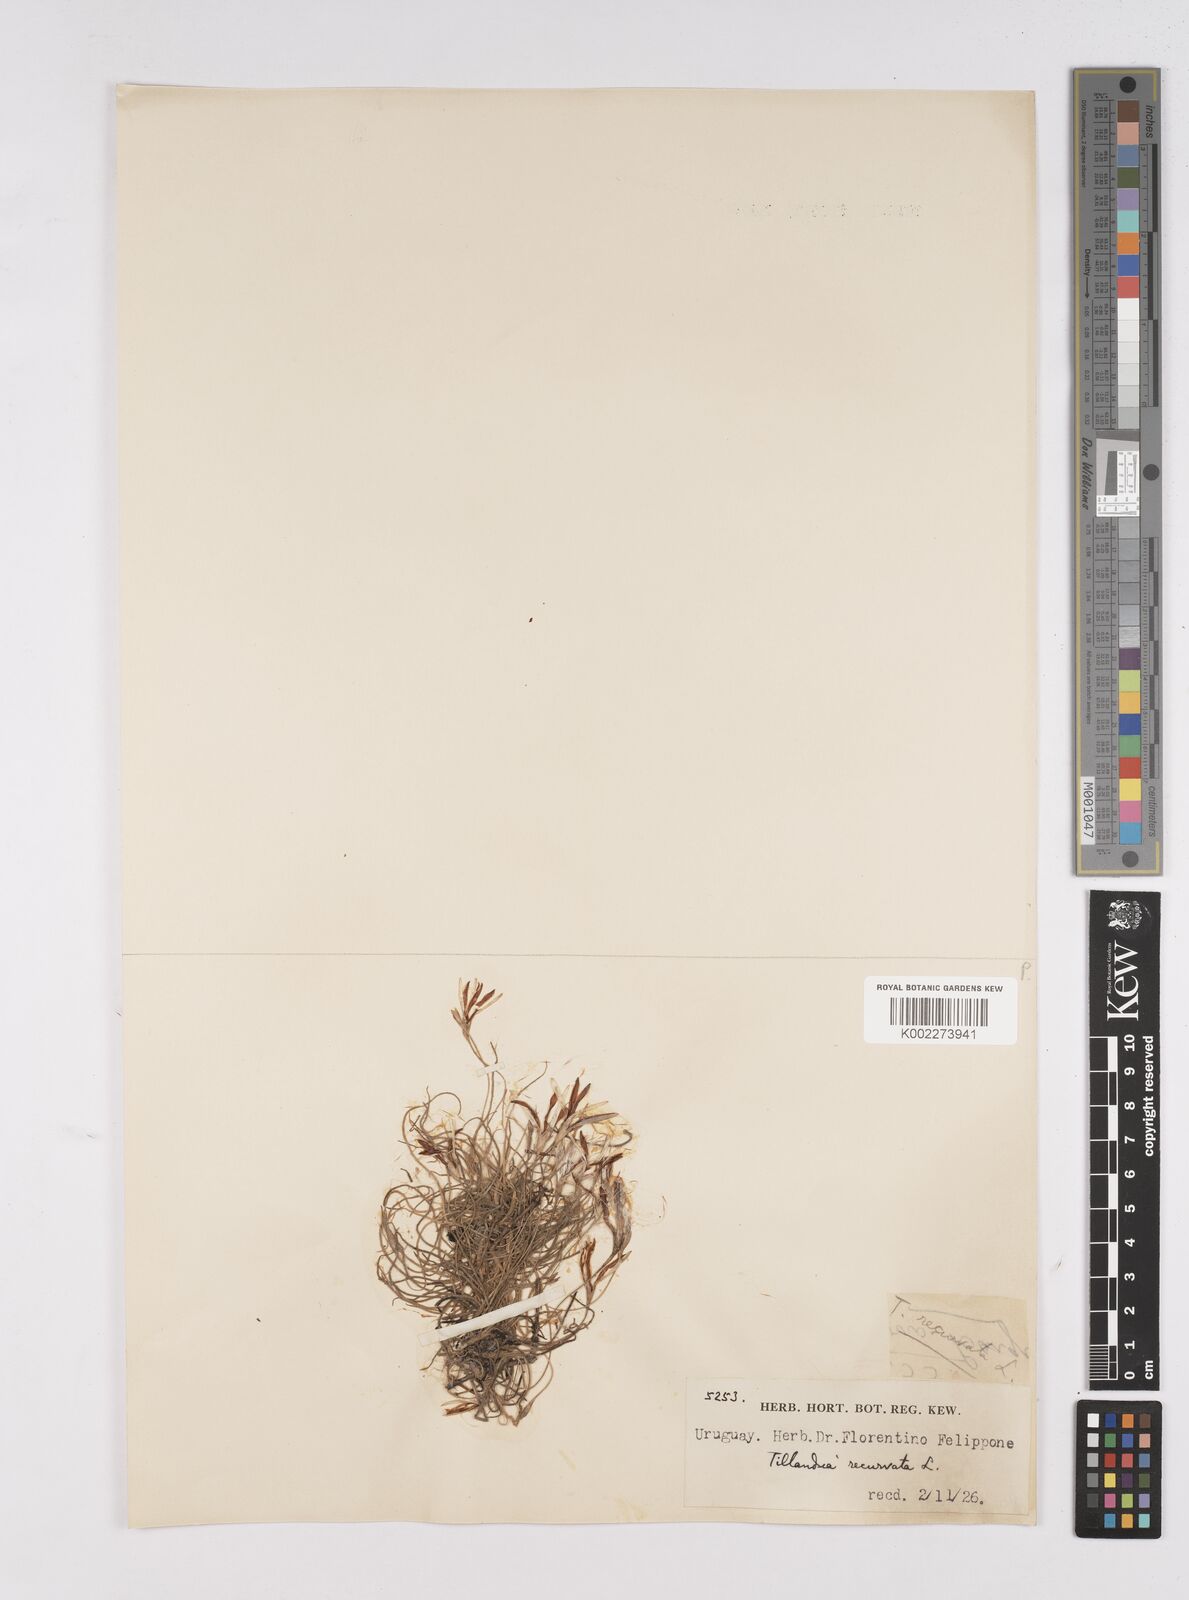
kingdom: Plantae
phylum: Tracheophyta
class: Liliopsida
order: Poales
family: Bromeliaceae
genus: Tillandsia
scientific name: Tillandsia recurvata
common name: Small ballmoss
